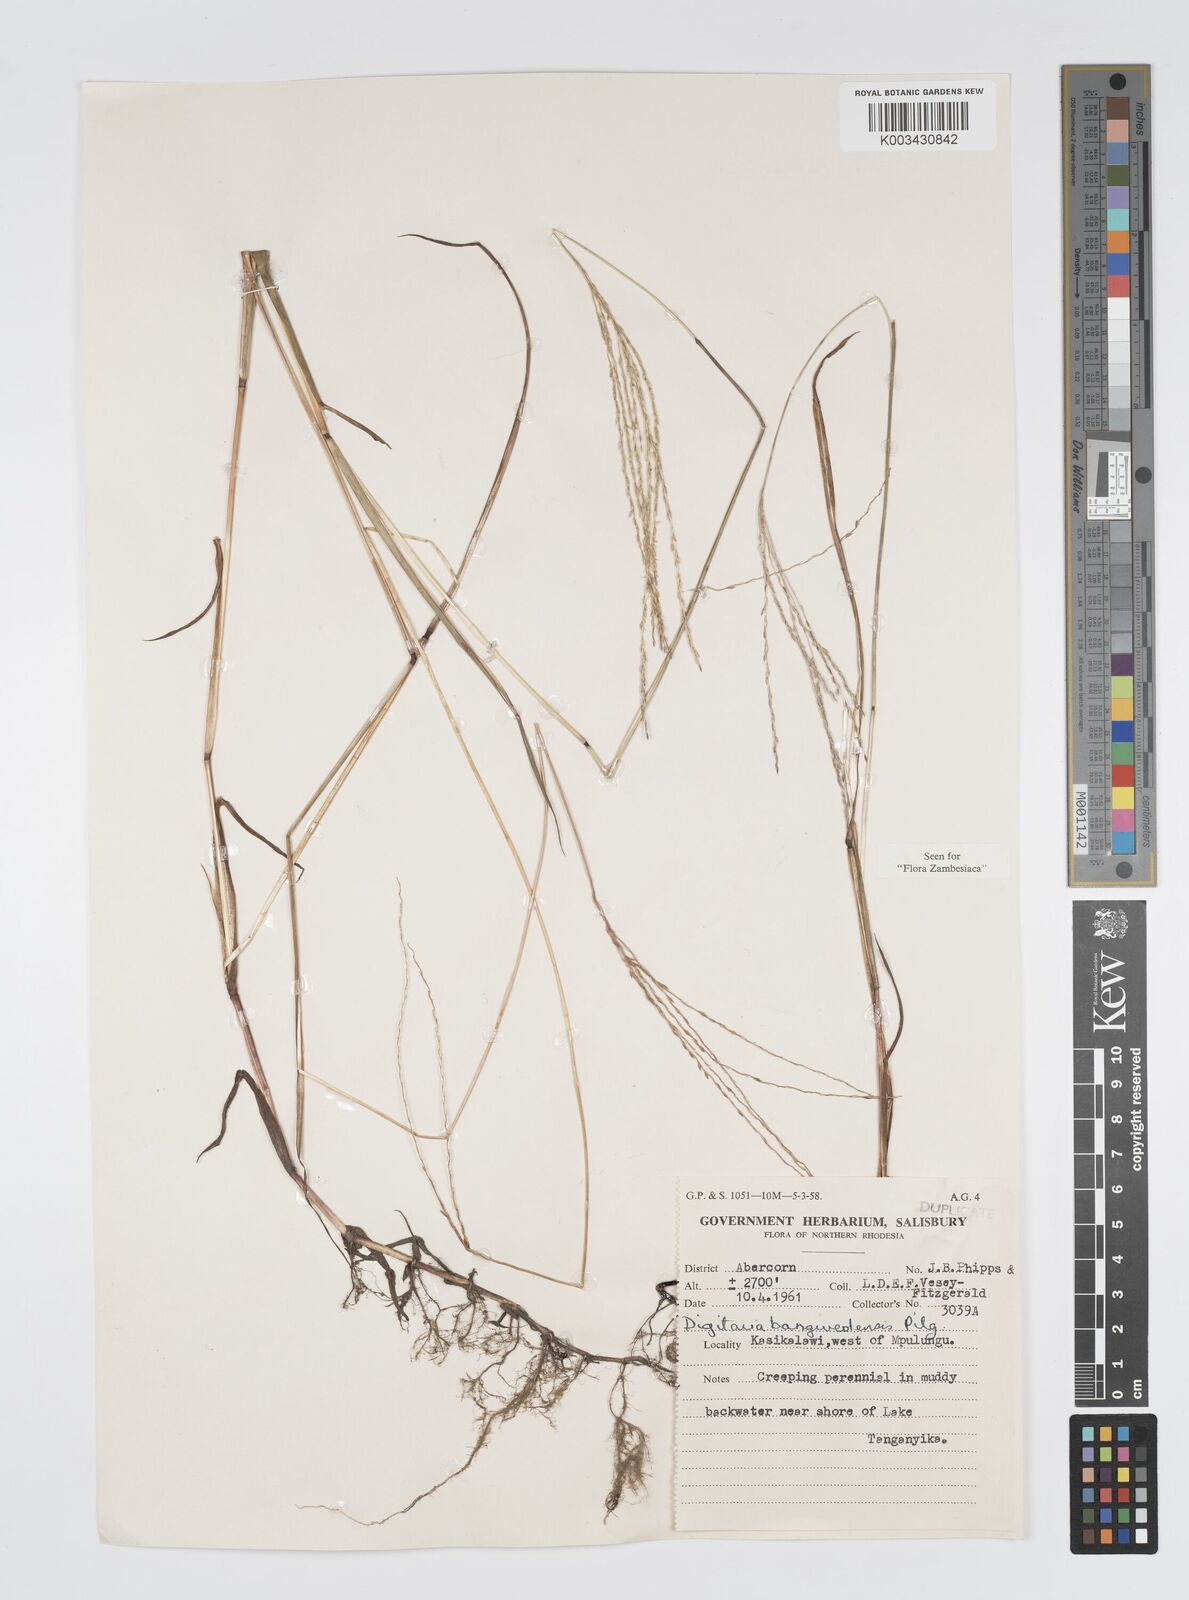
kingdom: Plantae
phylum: Tracheophyta
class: Liliopsida
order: Poales
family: Poaceae
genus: Digitaria
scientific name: Digitaria debilis
